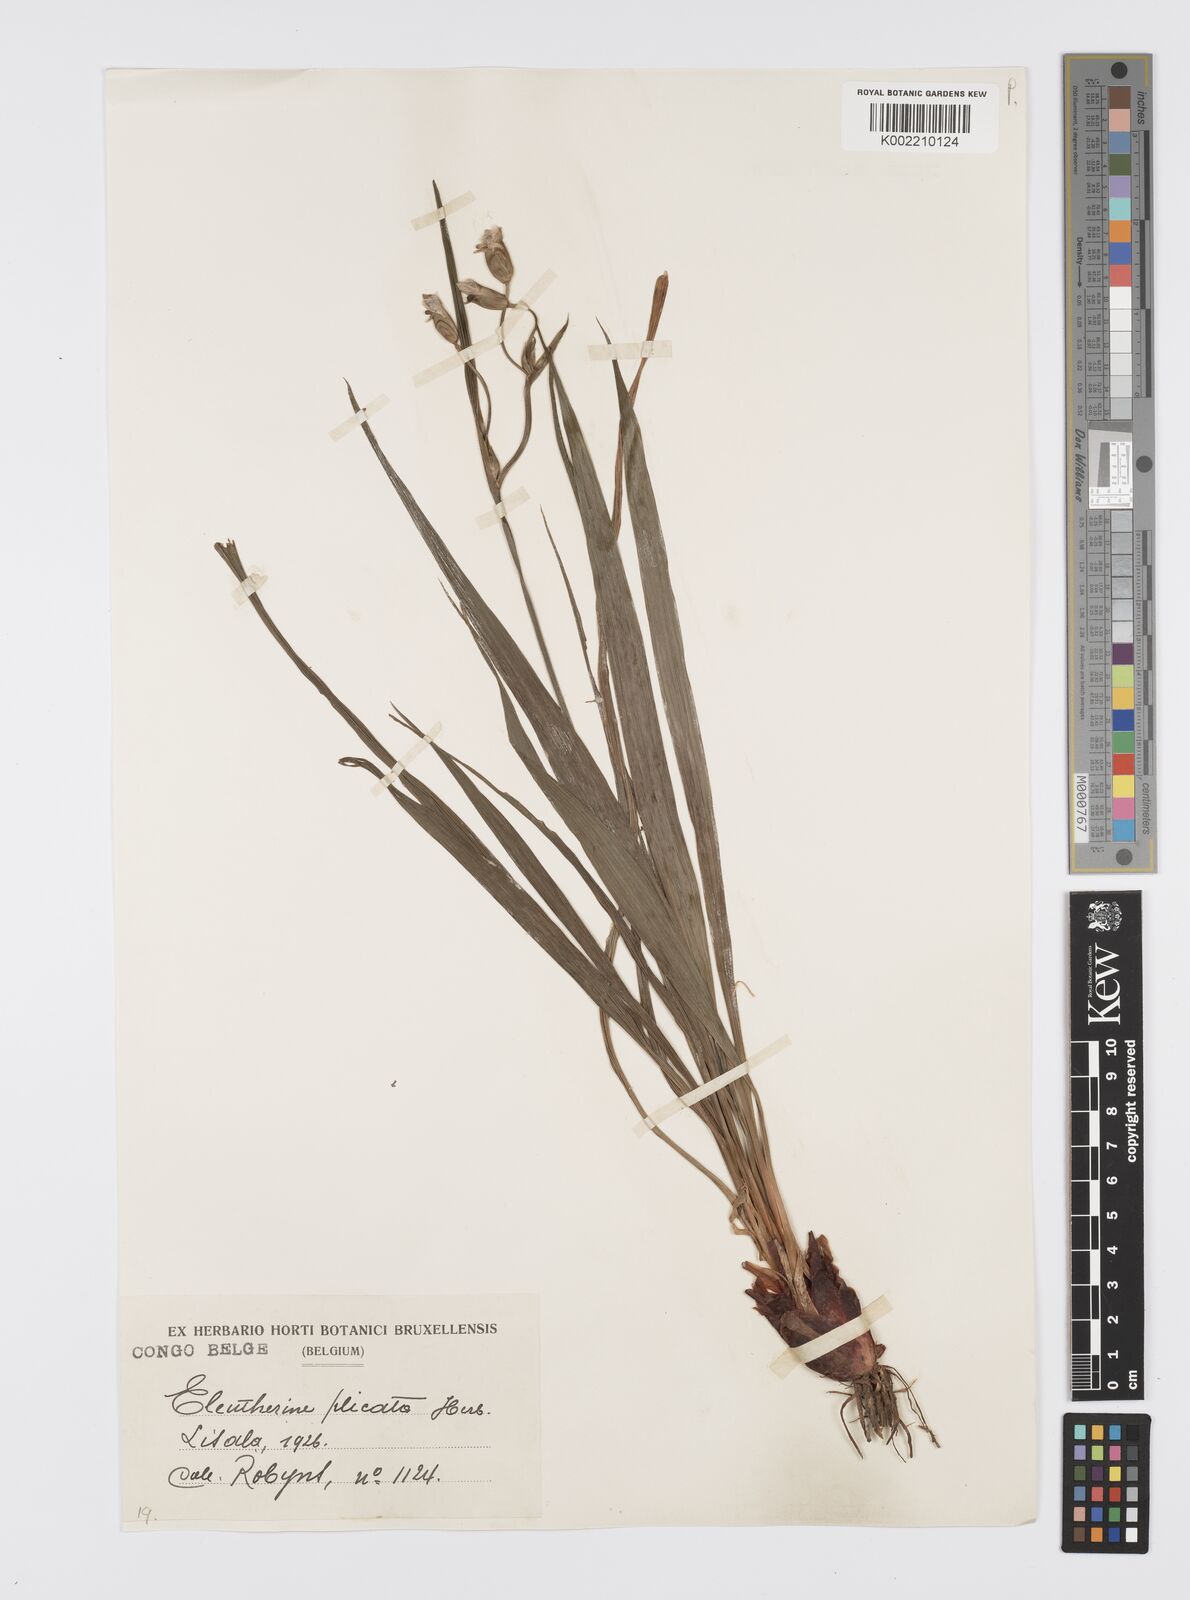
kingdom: Plantae
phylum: Tracheophyta
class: Liliopsida
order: Asparagales
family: Iridaceae
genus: Eleutherine
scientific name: Eleutherine bulbosa
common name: Lagrimas de la virgen
